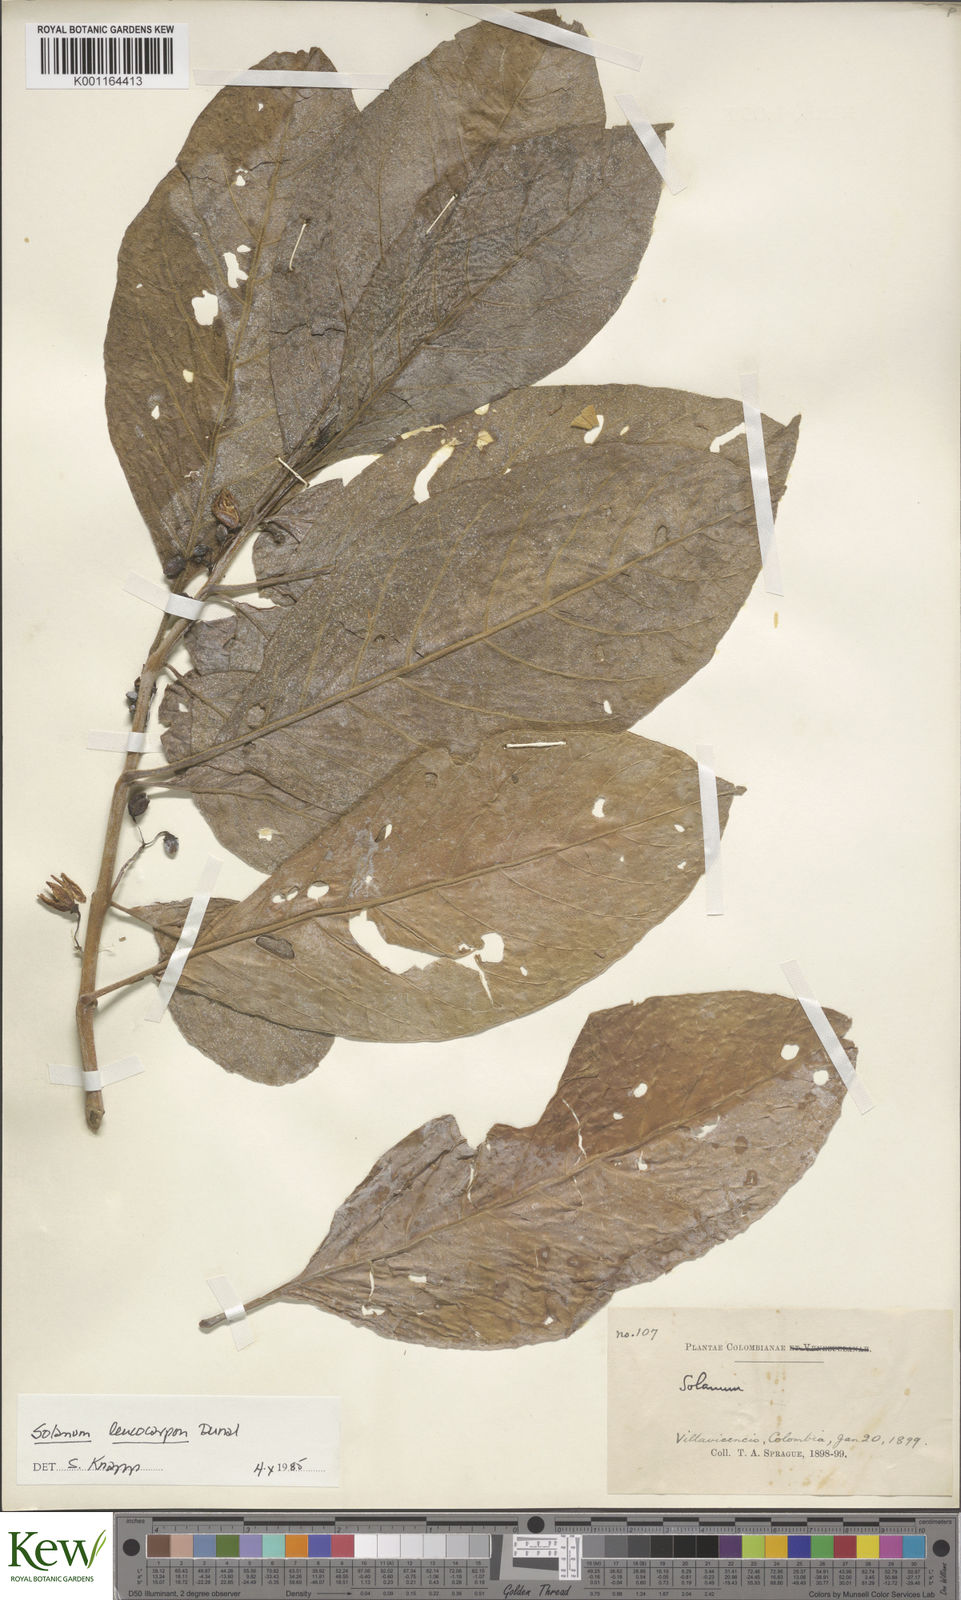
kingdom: Plantae
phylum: Tracheophyta
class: Magnoliopsida
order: Solanales
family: Solanaceae
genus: Solanum
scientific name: Solanum leptorhachis
